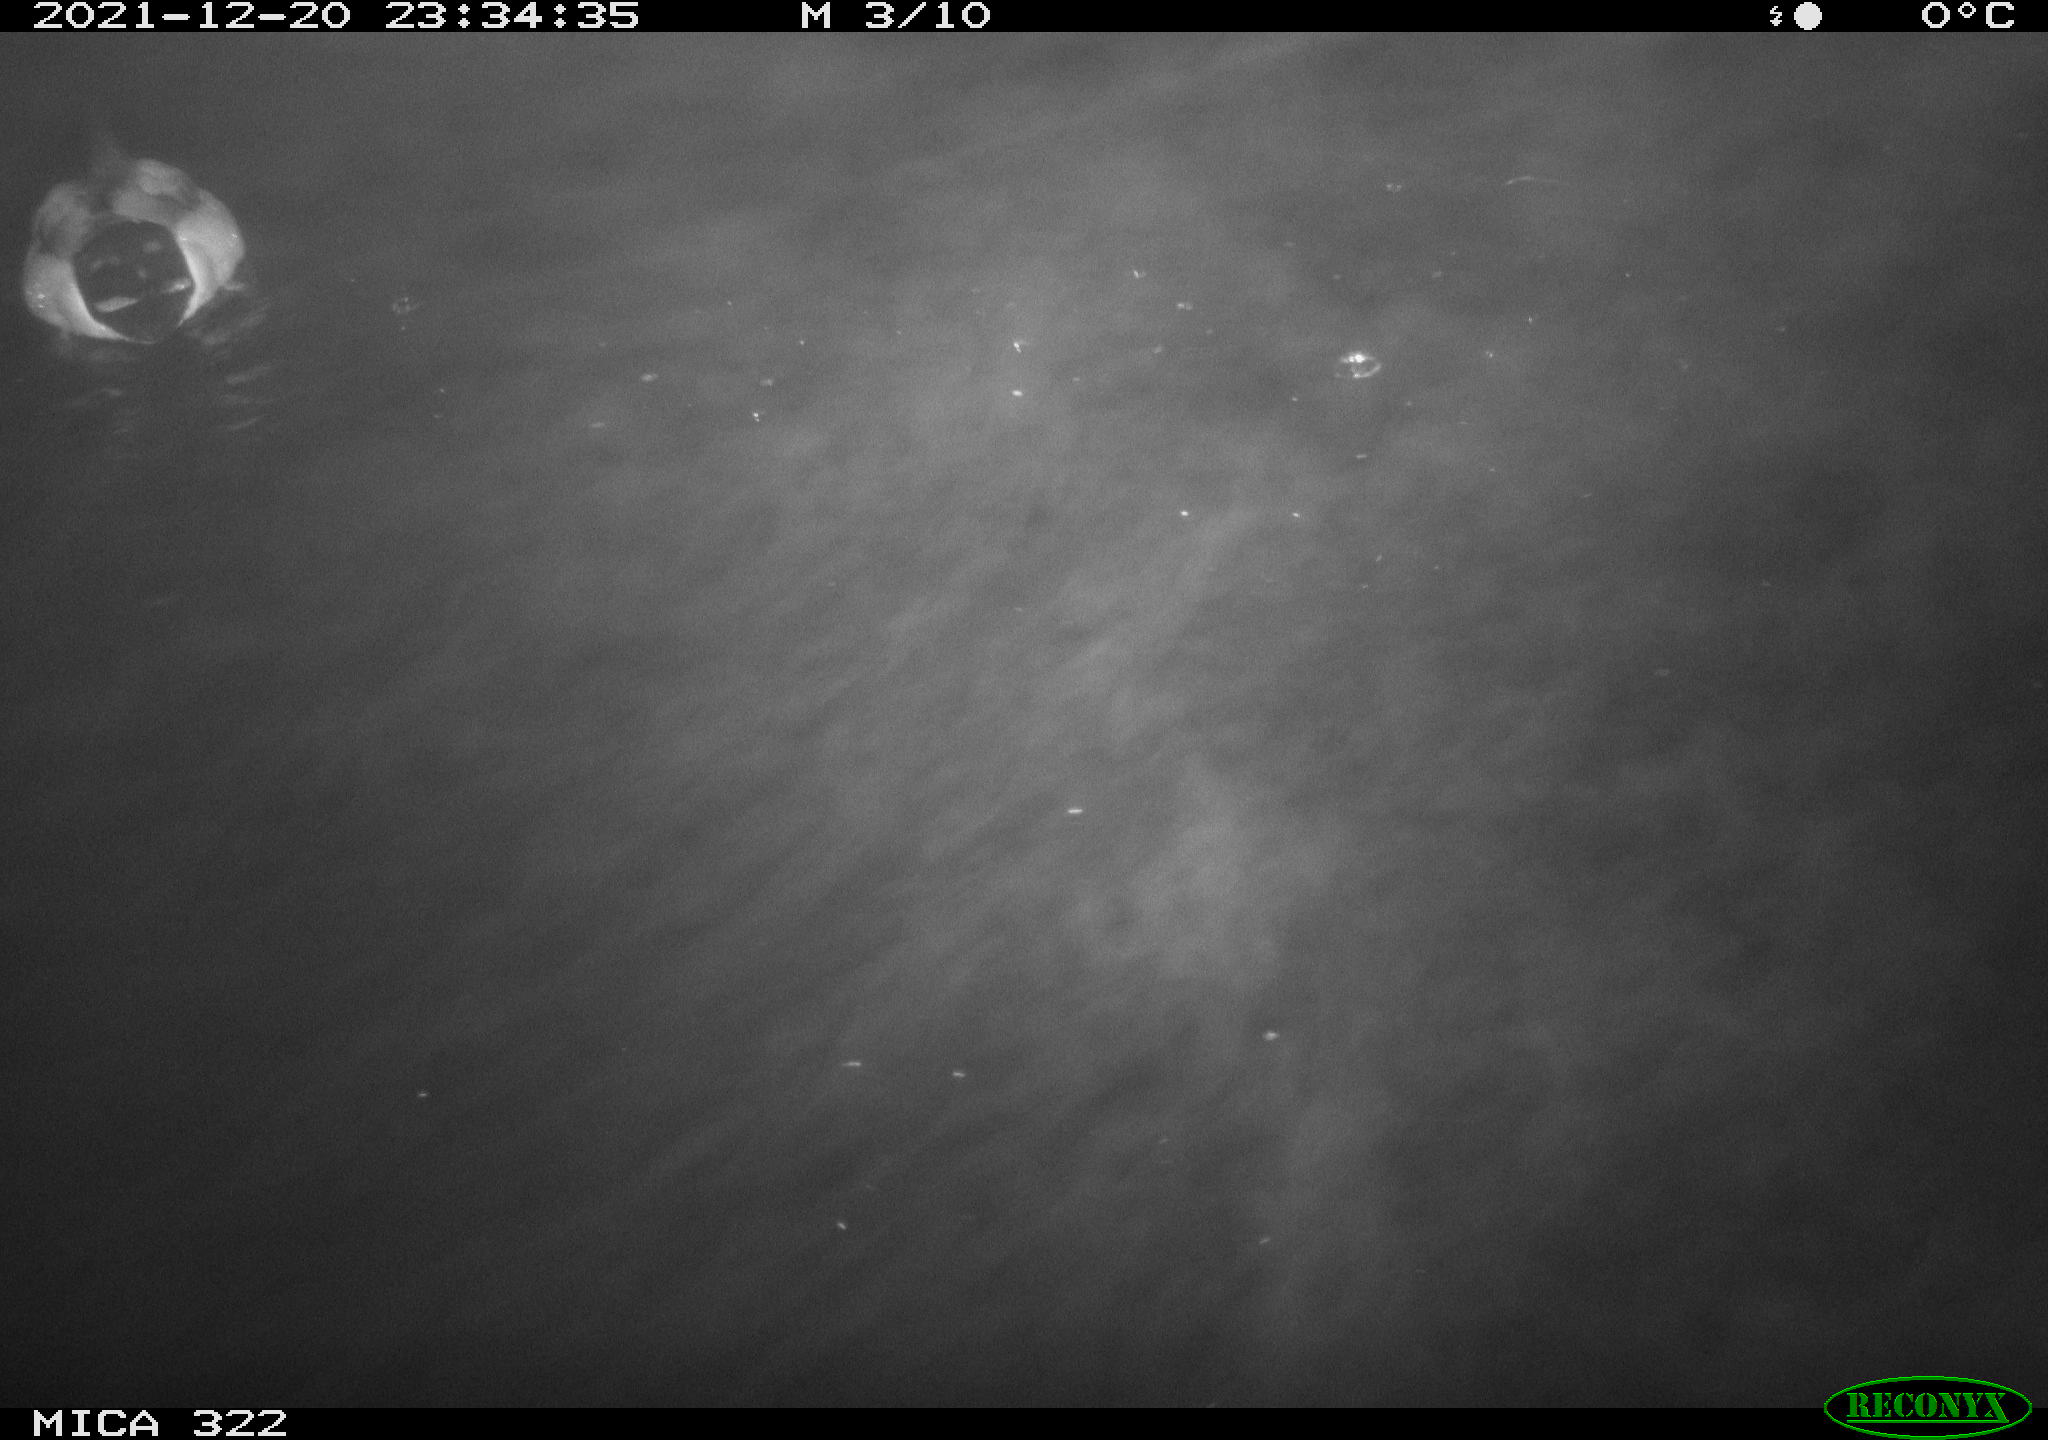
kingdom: Animalia
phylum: Chordata
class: Aves
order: Anseriformes
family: Anatidae
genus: Anas
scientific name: Anas
